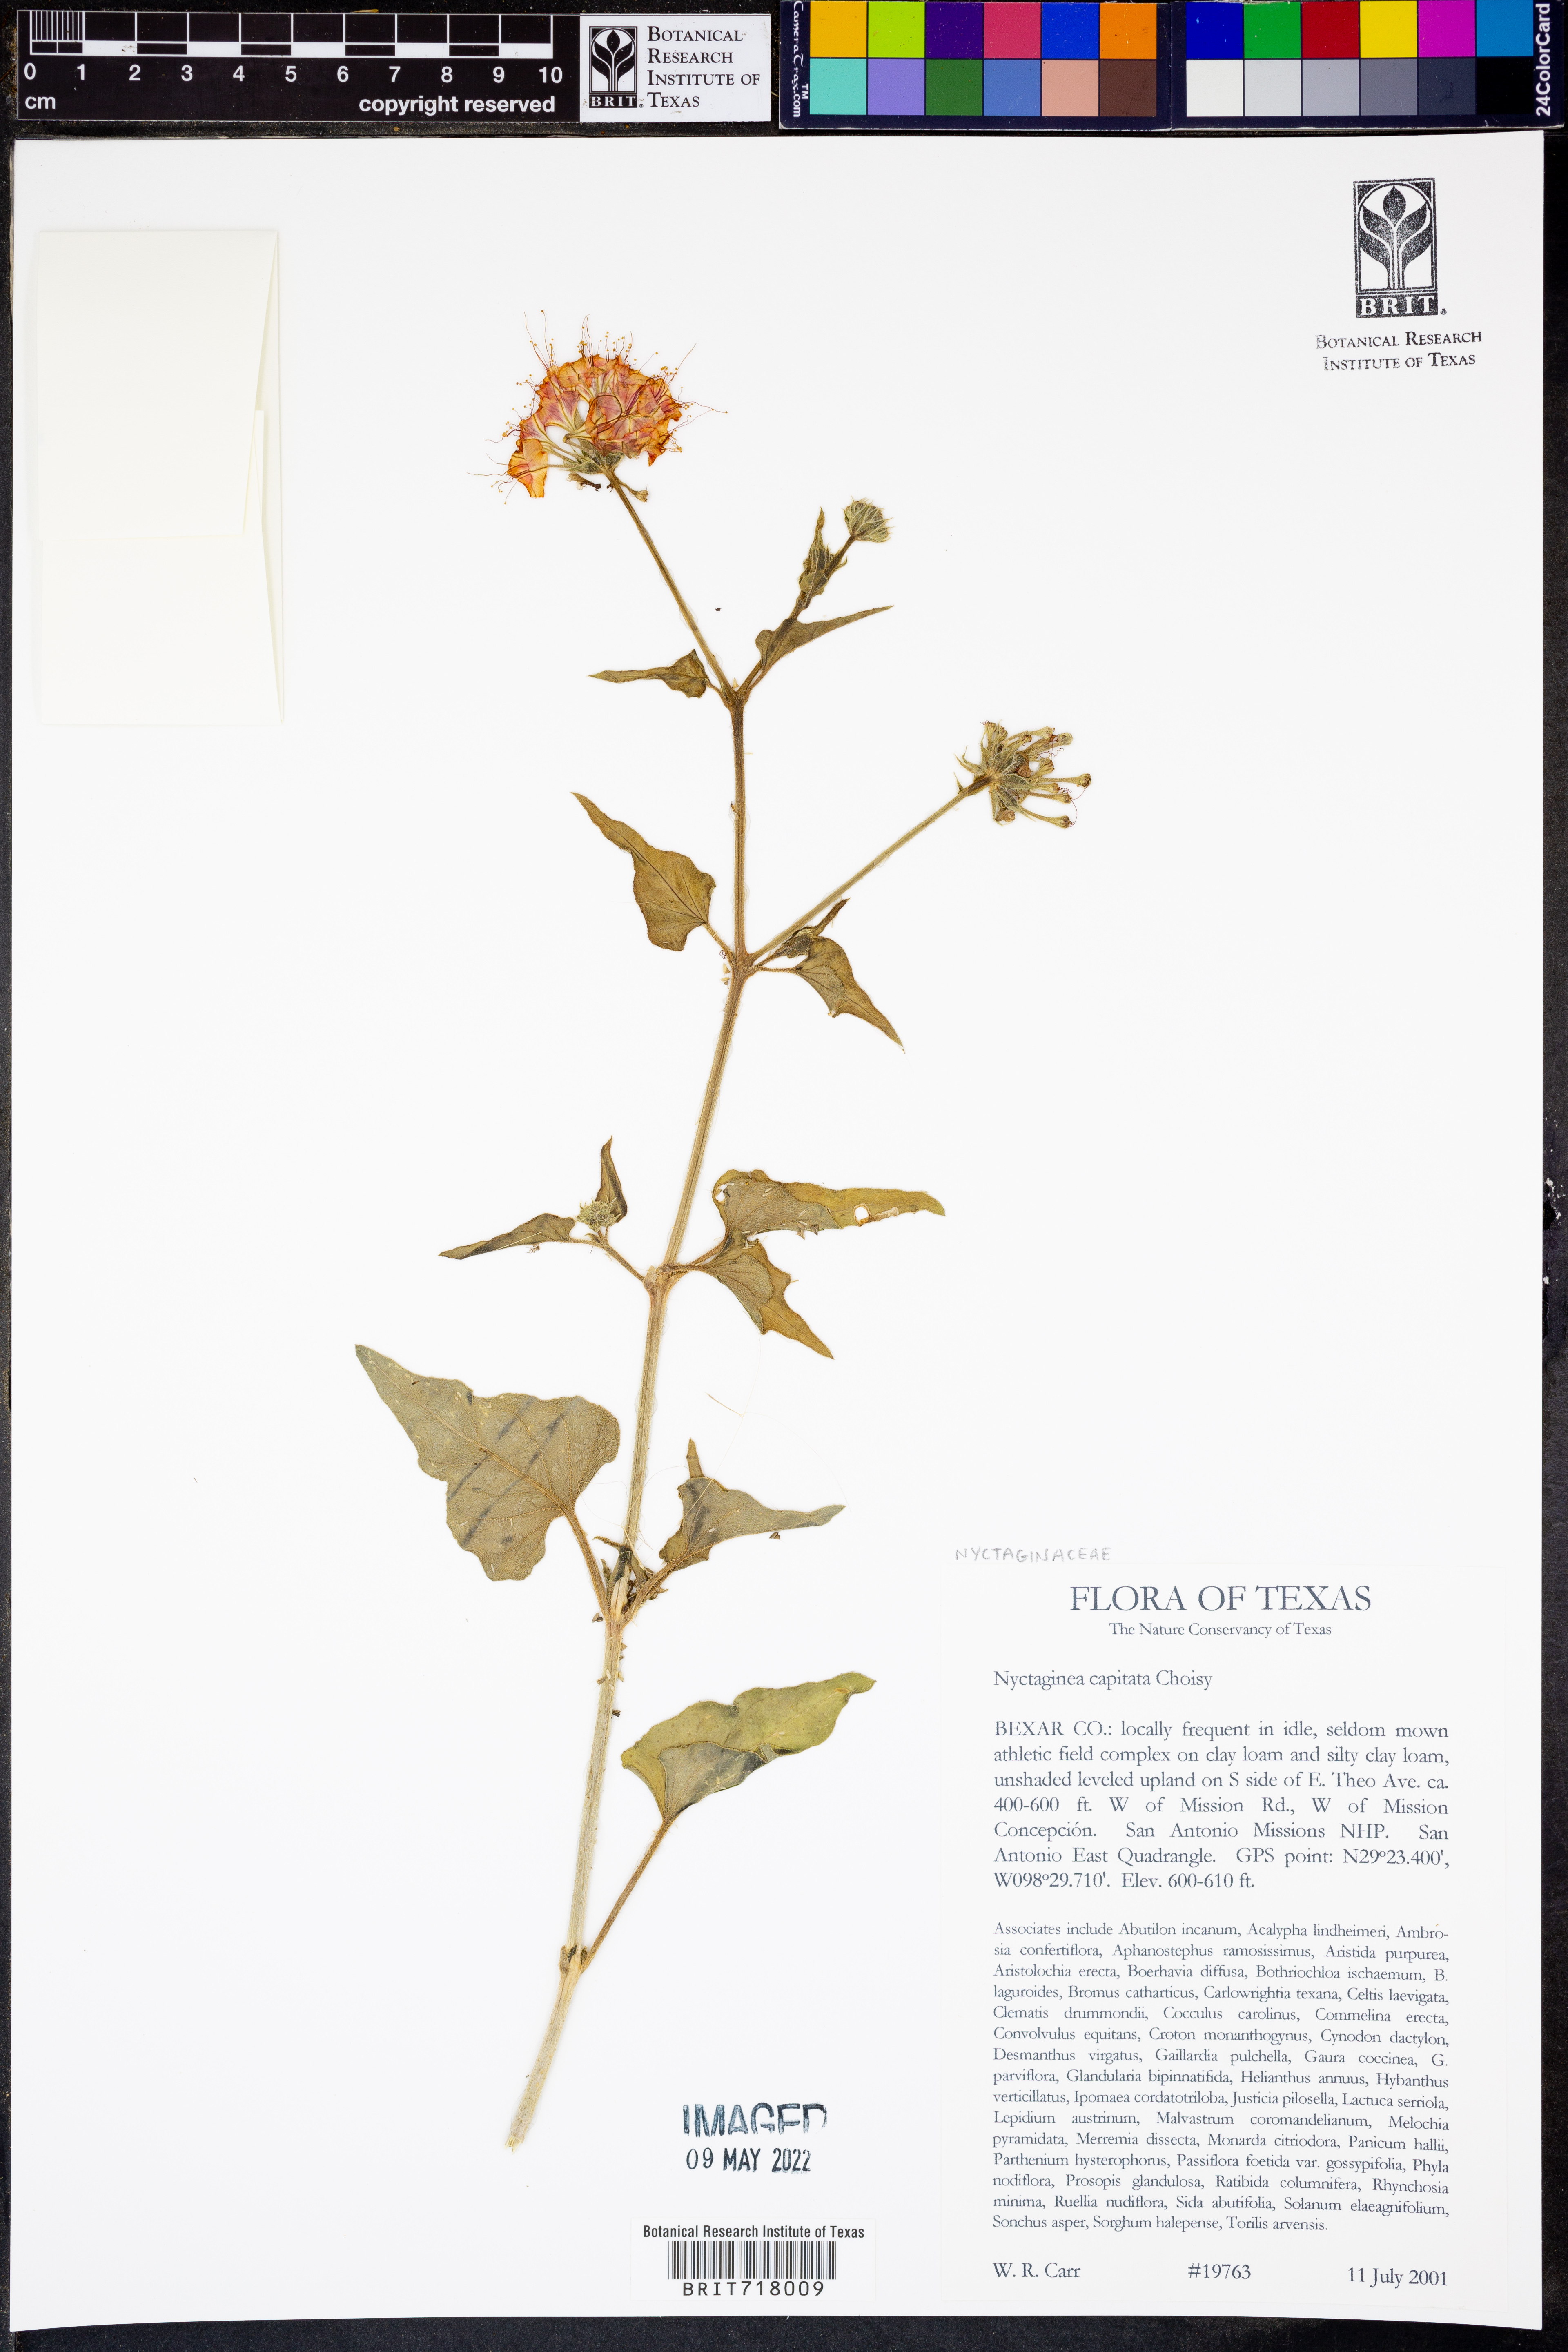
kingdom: Plantae
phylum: Tracheophyta
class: Magnoliopsida
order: Caryophyllales
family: Nyctaginaceae
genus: Nyctaginia
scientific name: Nyctaginia capitata
